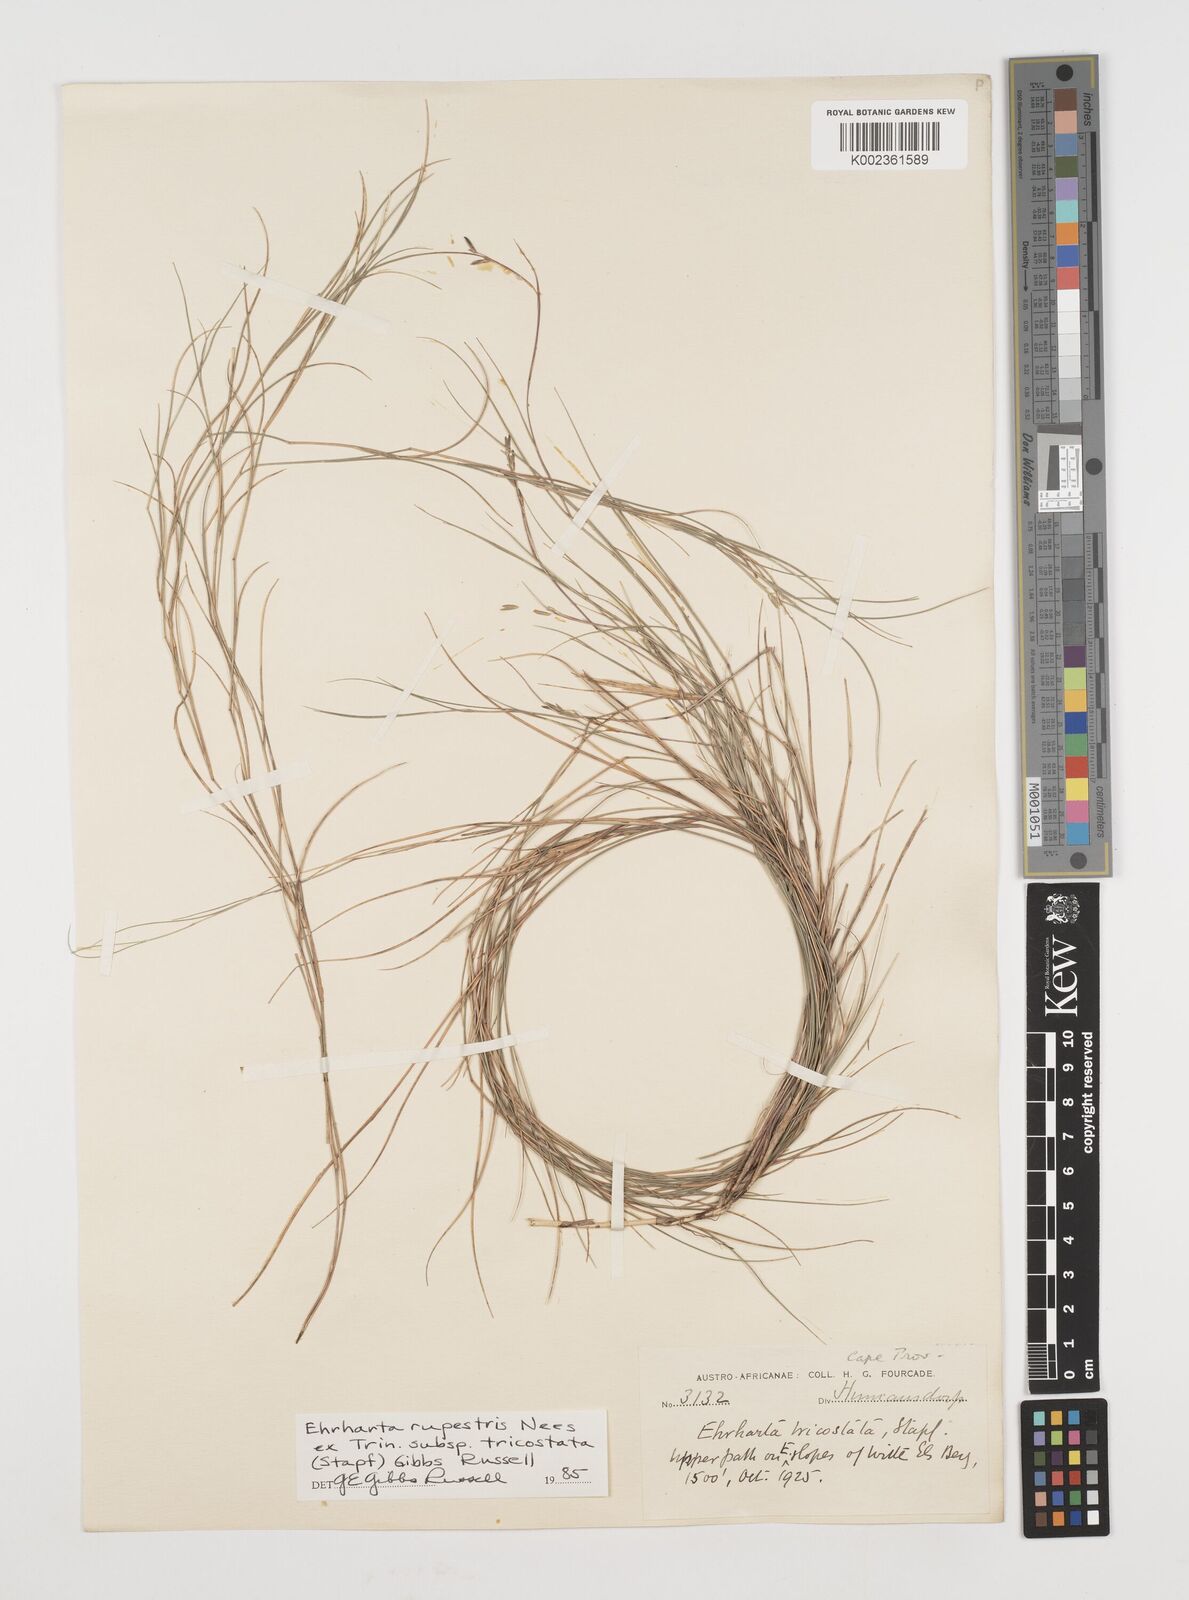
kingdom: Plantae
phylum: Tracheophyta
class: Liliopsida
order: Poales
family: Poaceae
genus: Ehrharta
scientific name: Ehrharta rupestris
